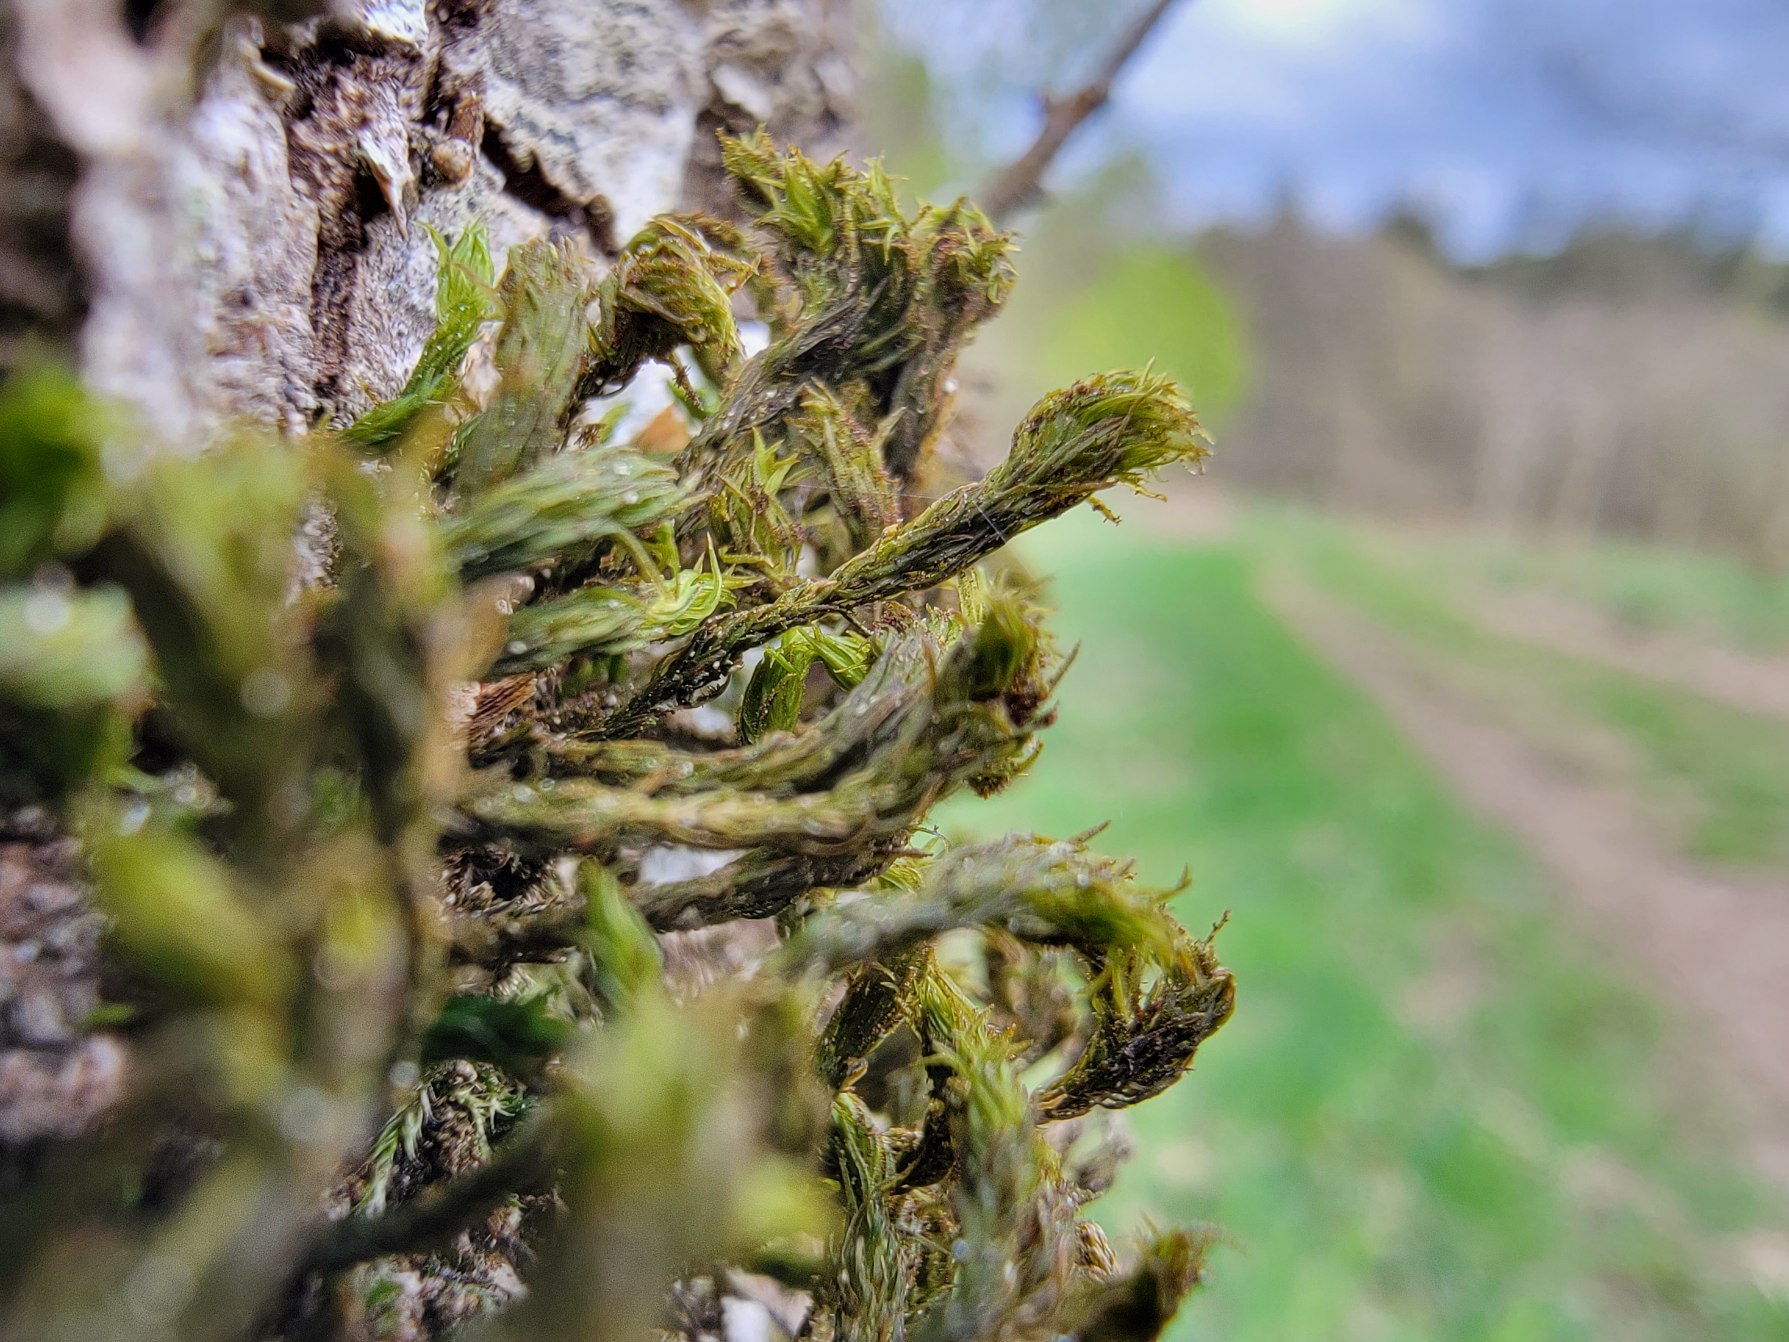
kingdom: Plantae
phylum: Bryophyta
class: Bryopsida
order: Orthotrichales
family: Orthotrichaceae
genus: Pulvigera
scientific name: Pulvigera lyellii
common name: Stor furehætte
